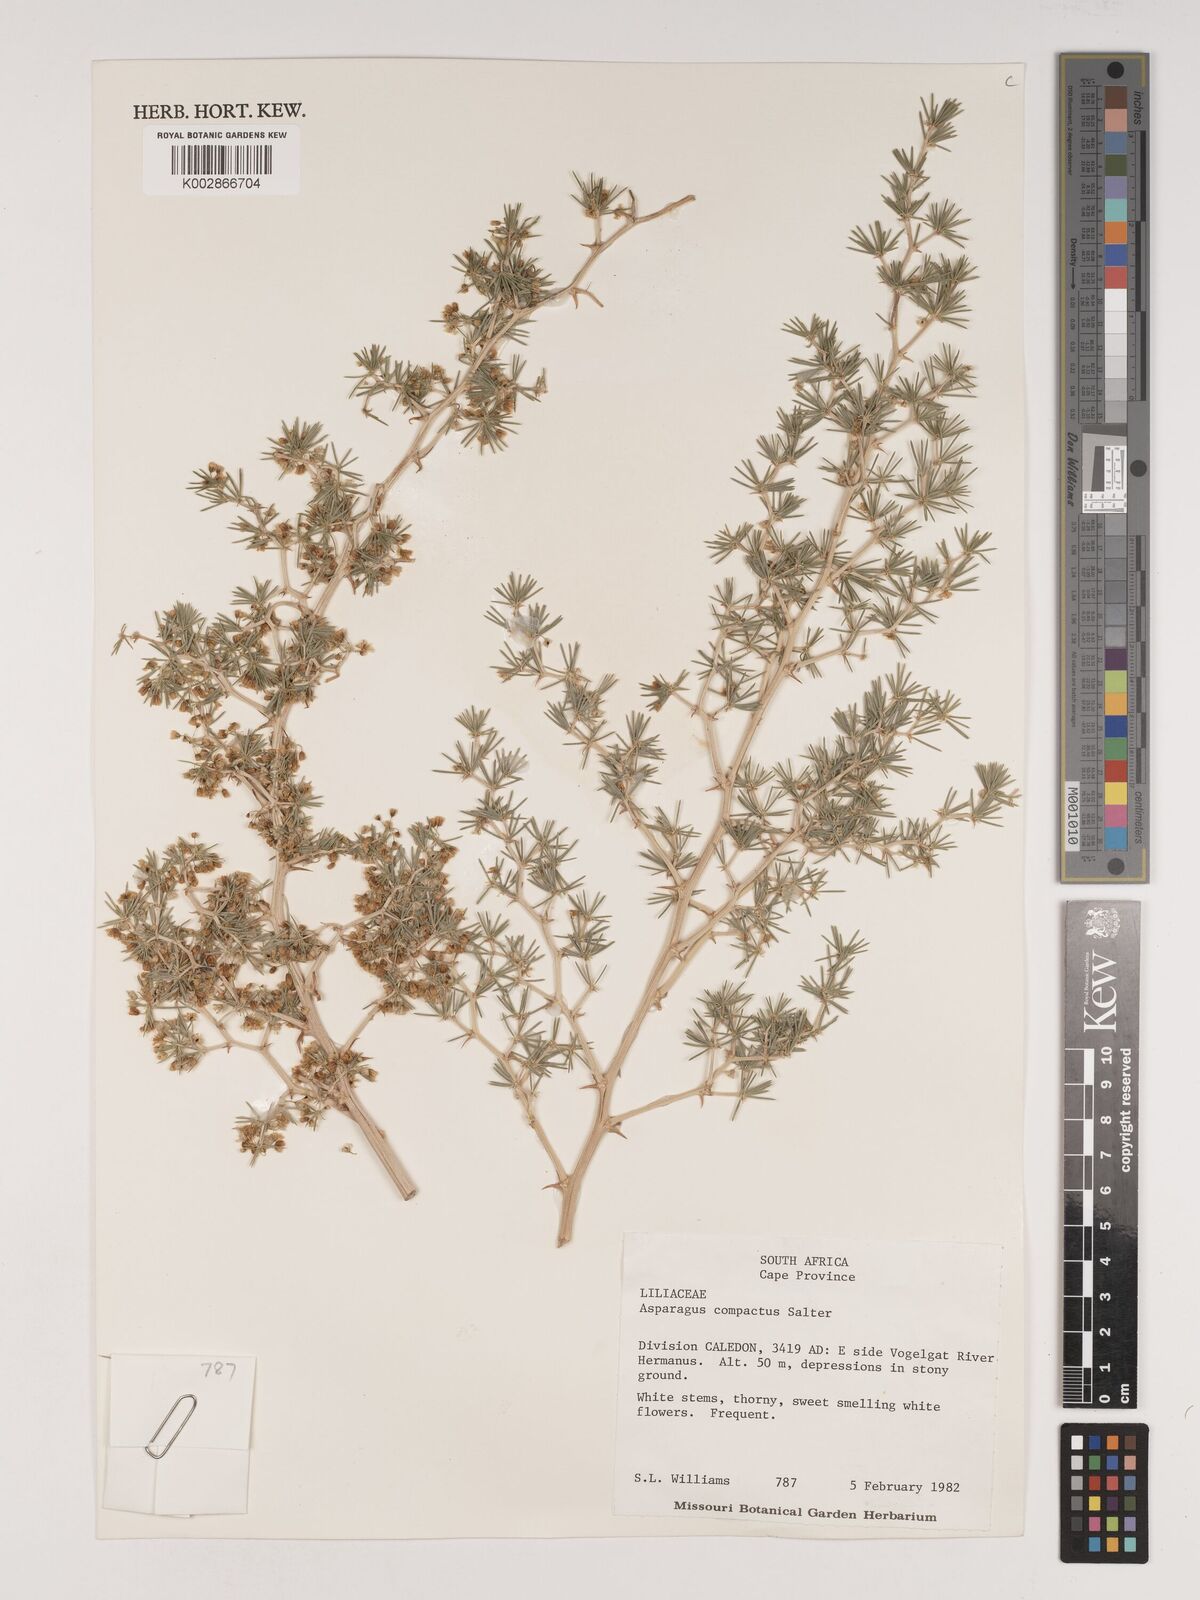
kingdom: Plantae
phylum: Tracheophyta
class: Liliopsida
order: Asparagales
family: Asparagaceae
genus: Asparagus
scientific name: Asparagus lignosus
